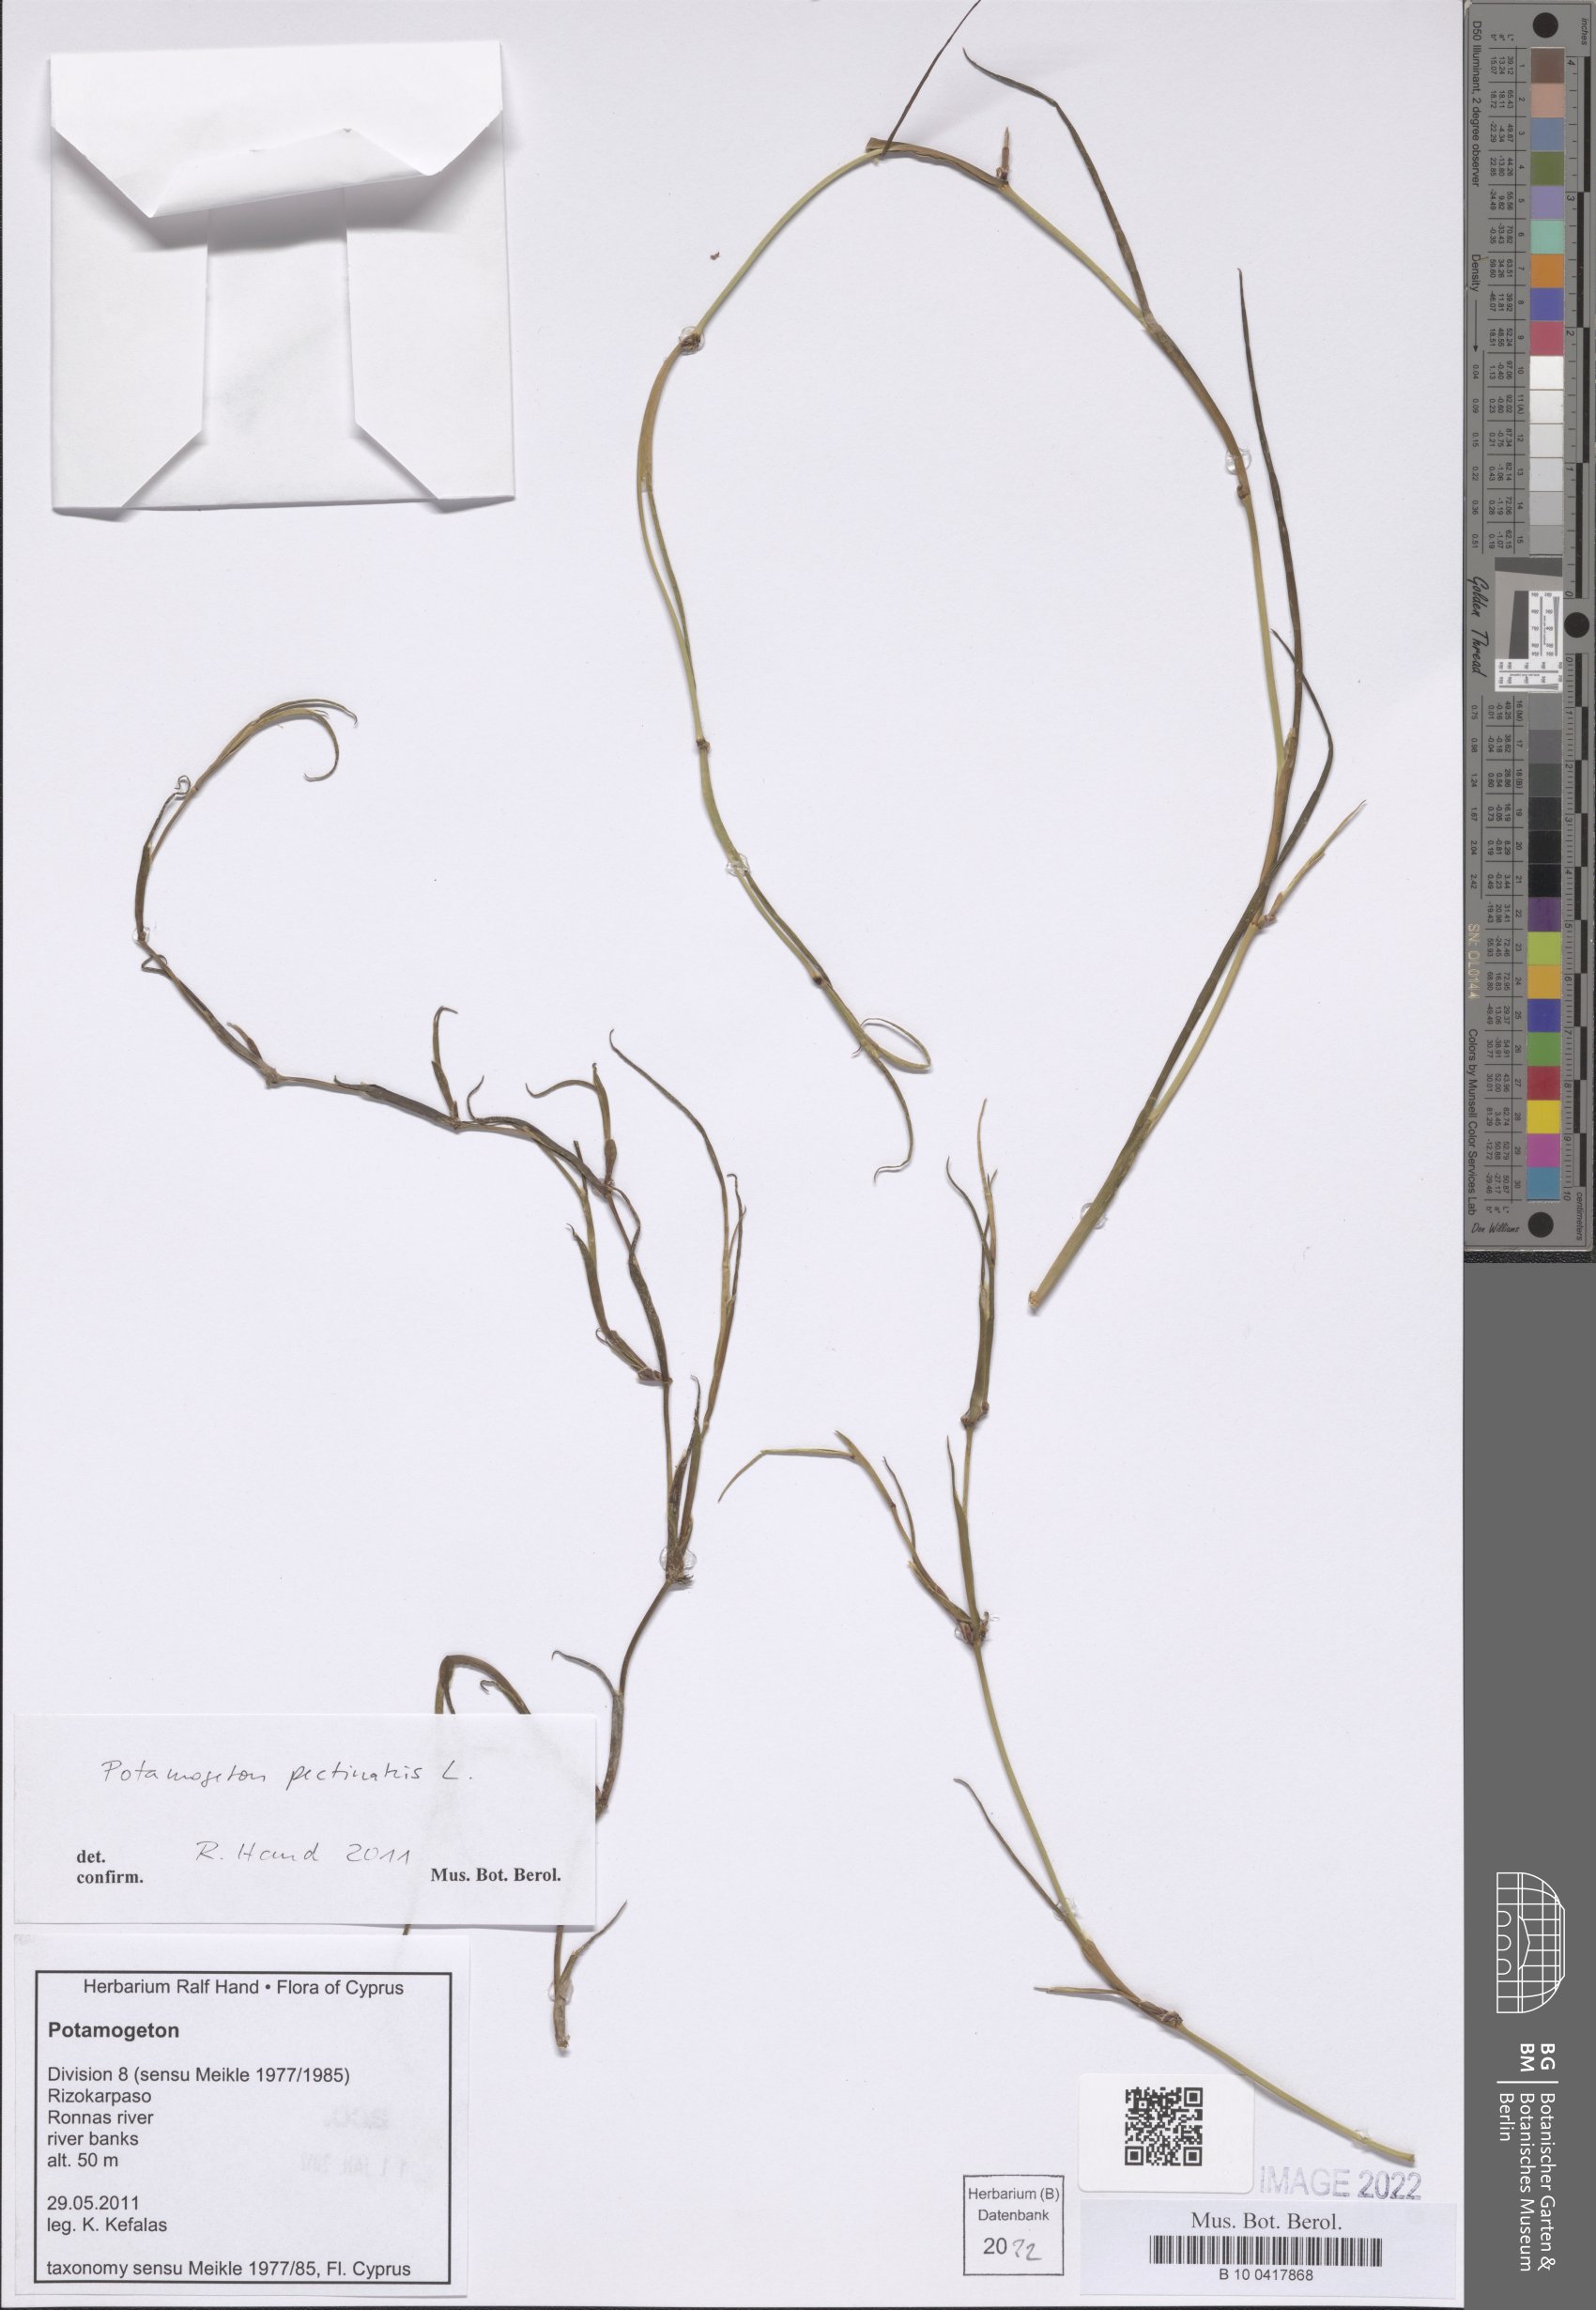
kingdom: Plantae
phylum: Tracheophyta
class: Liliopsida
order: Alismatales
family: Potamogetonaceae
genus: Stuckenia
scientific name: Stuckenia pectinata
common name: Sago pondweed
